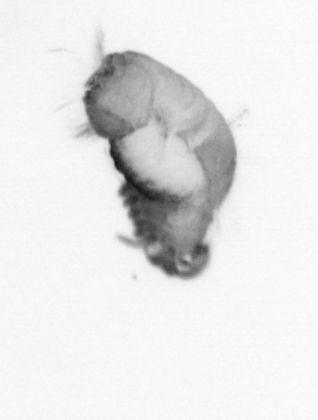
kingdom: Animalia
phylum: Annelida
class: Polychaeta
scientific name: Polychaeta
